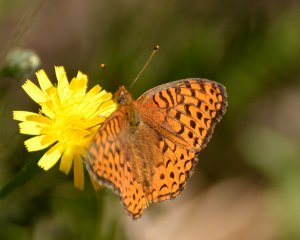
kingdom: Animalia
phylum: Arthropoda
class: Insecta
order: Lepidoptera
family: Nymphalidae
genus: Speyeria
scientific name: Speyeria aphrodite
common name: Aphrodite Fritillary
